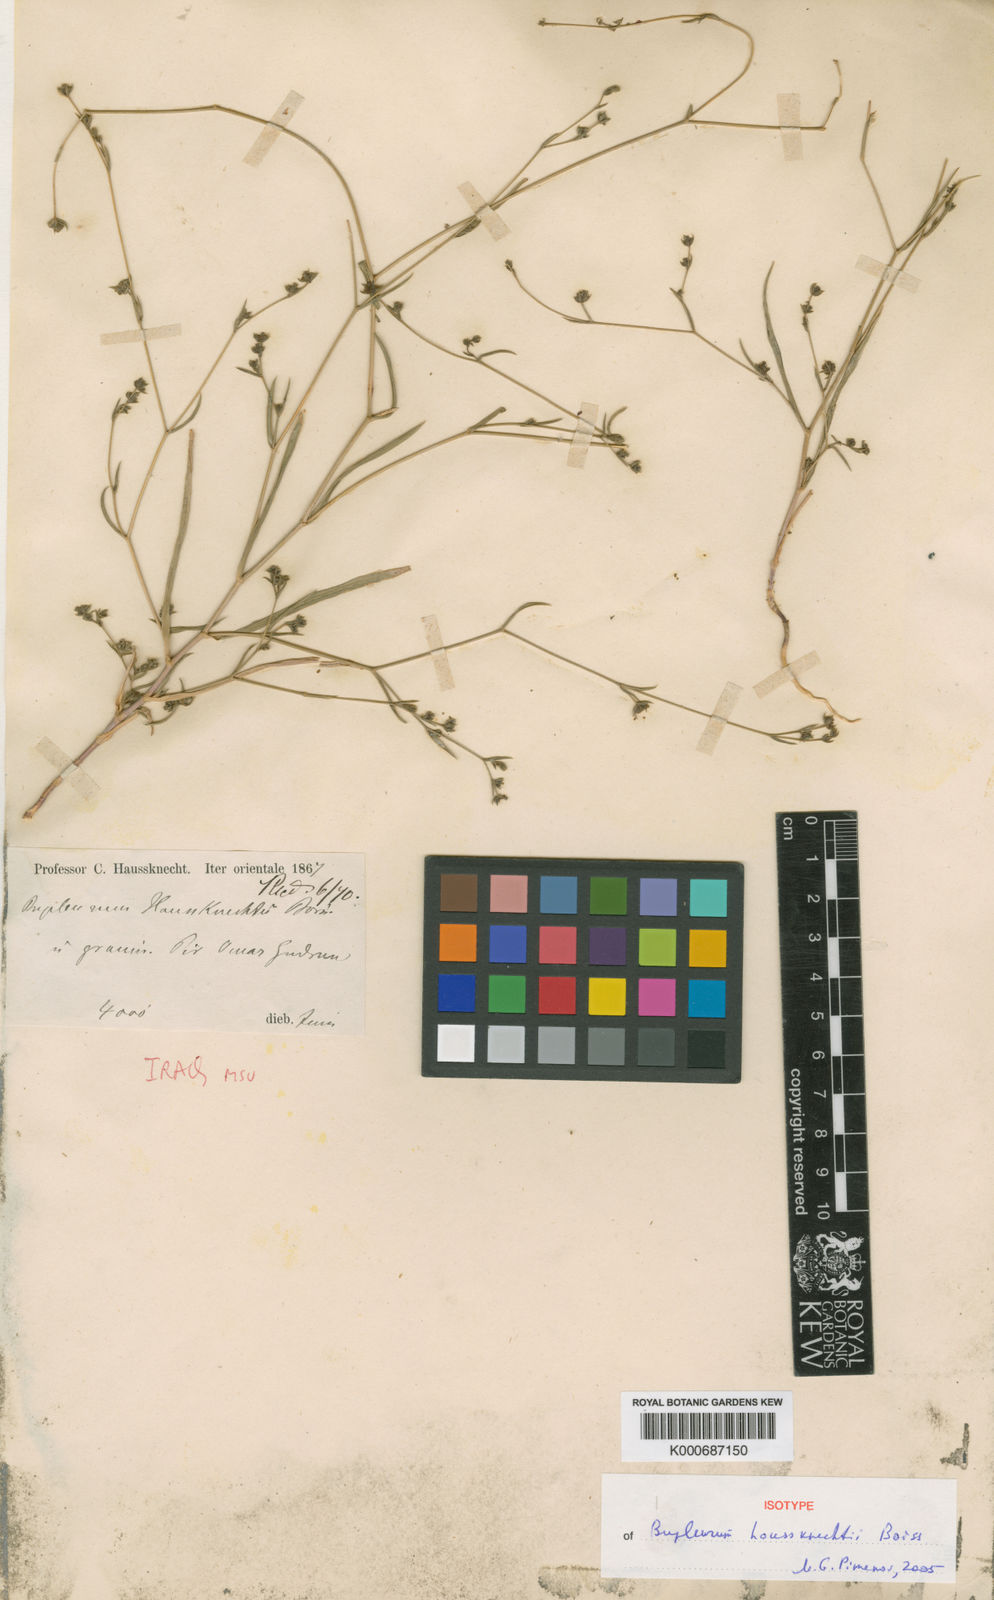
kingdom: Plantae
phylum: Tracheophyta
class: Magnoliopsida
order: Apiales
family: Apiaceae
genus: Bupleurum
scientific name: Bupleurum leucocladum
